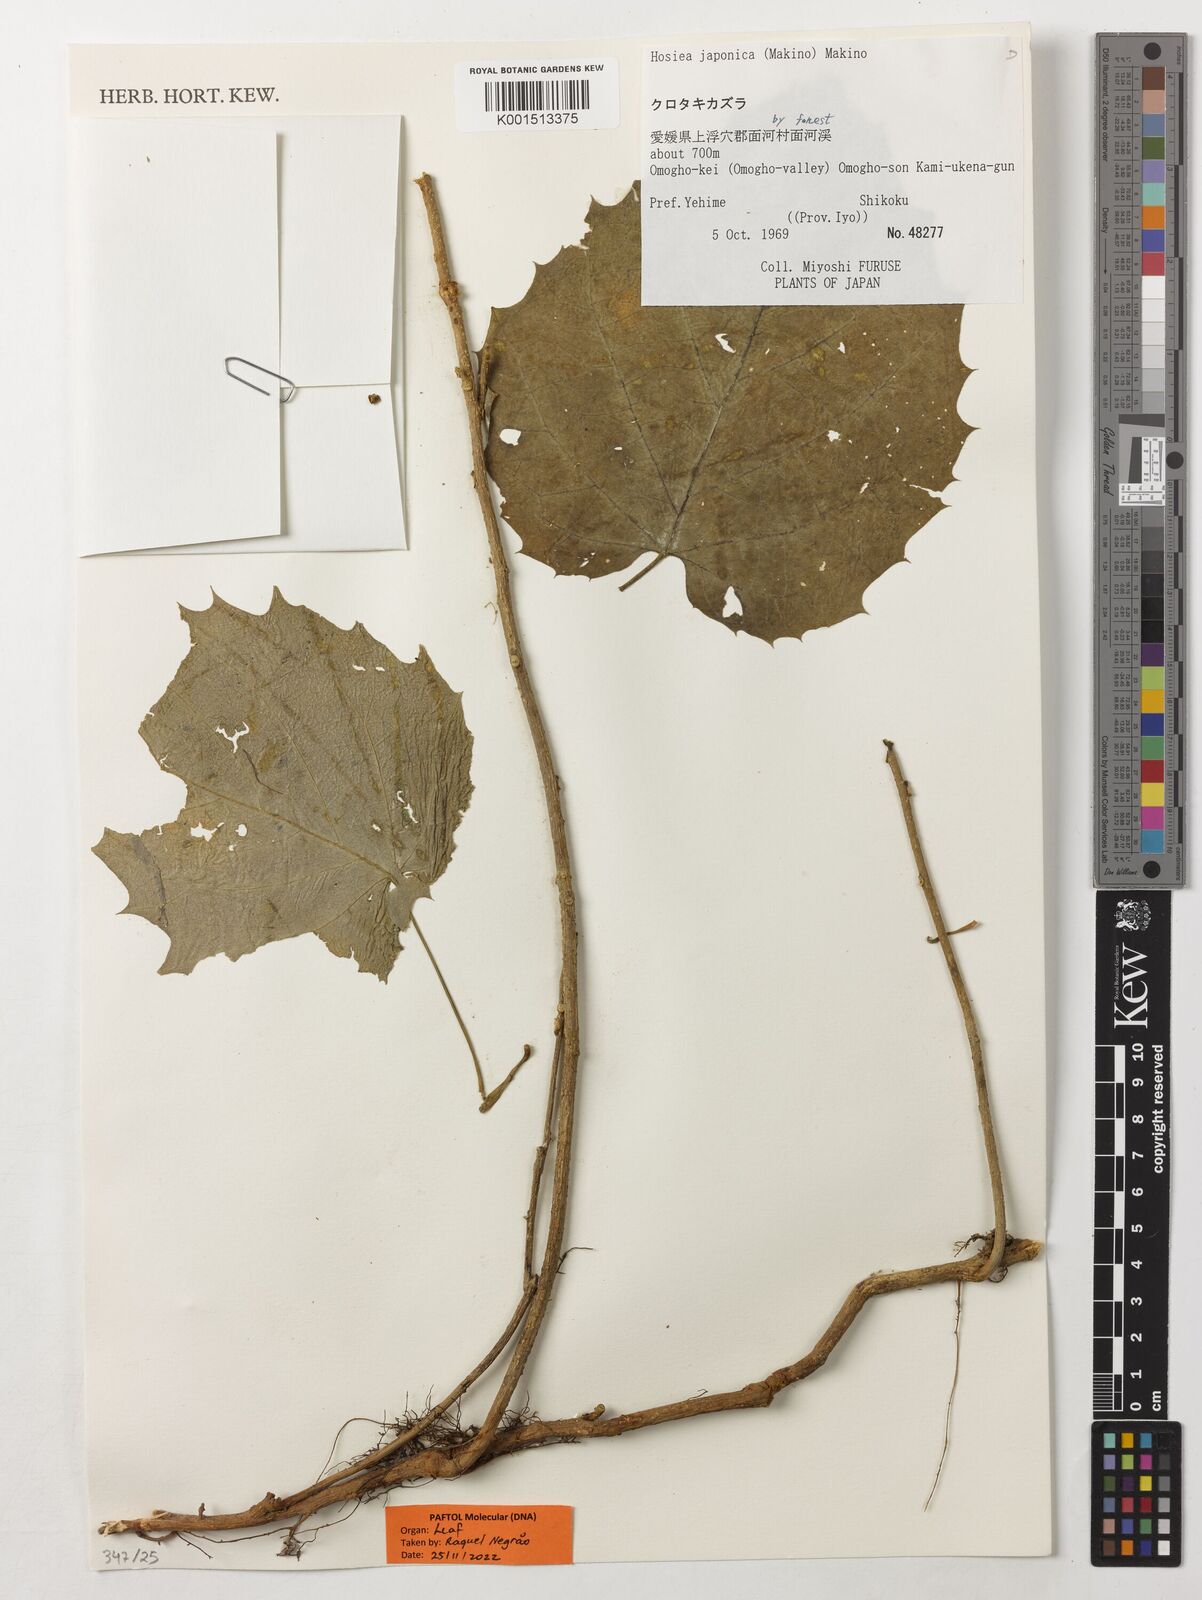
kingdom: Plantae
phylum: Tracheophyta
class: Magnoliopsida
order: Icacinales
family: Icacinaceae
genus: Hosiea
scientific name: Hosiea japonica
